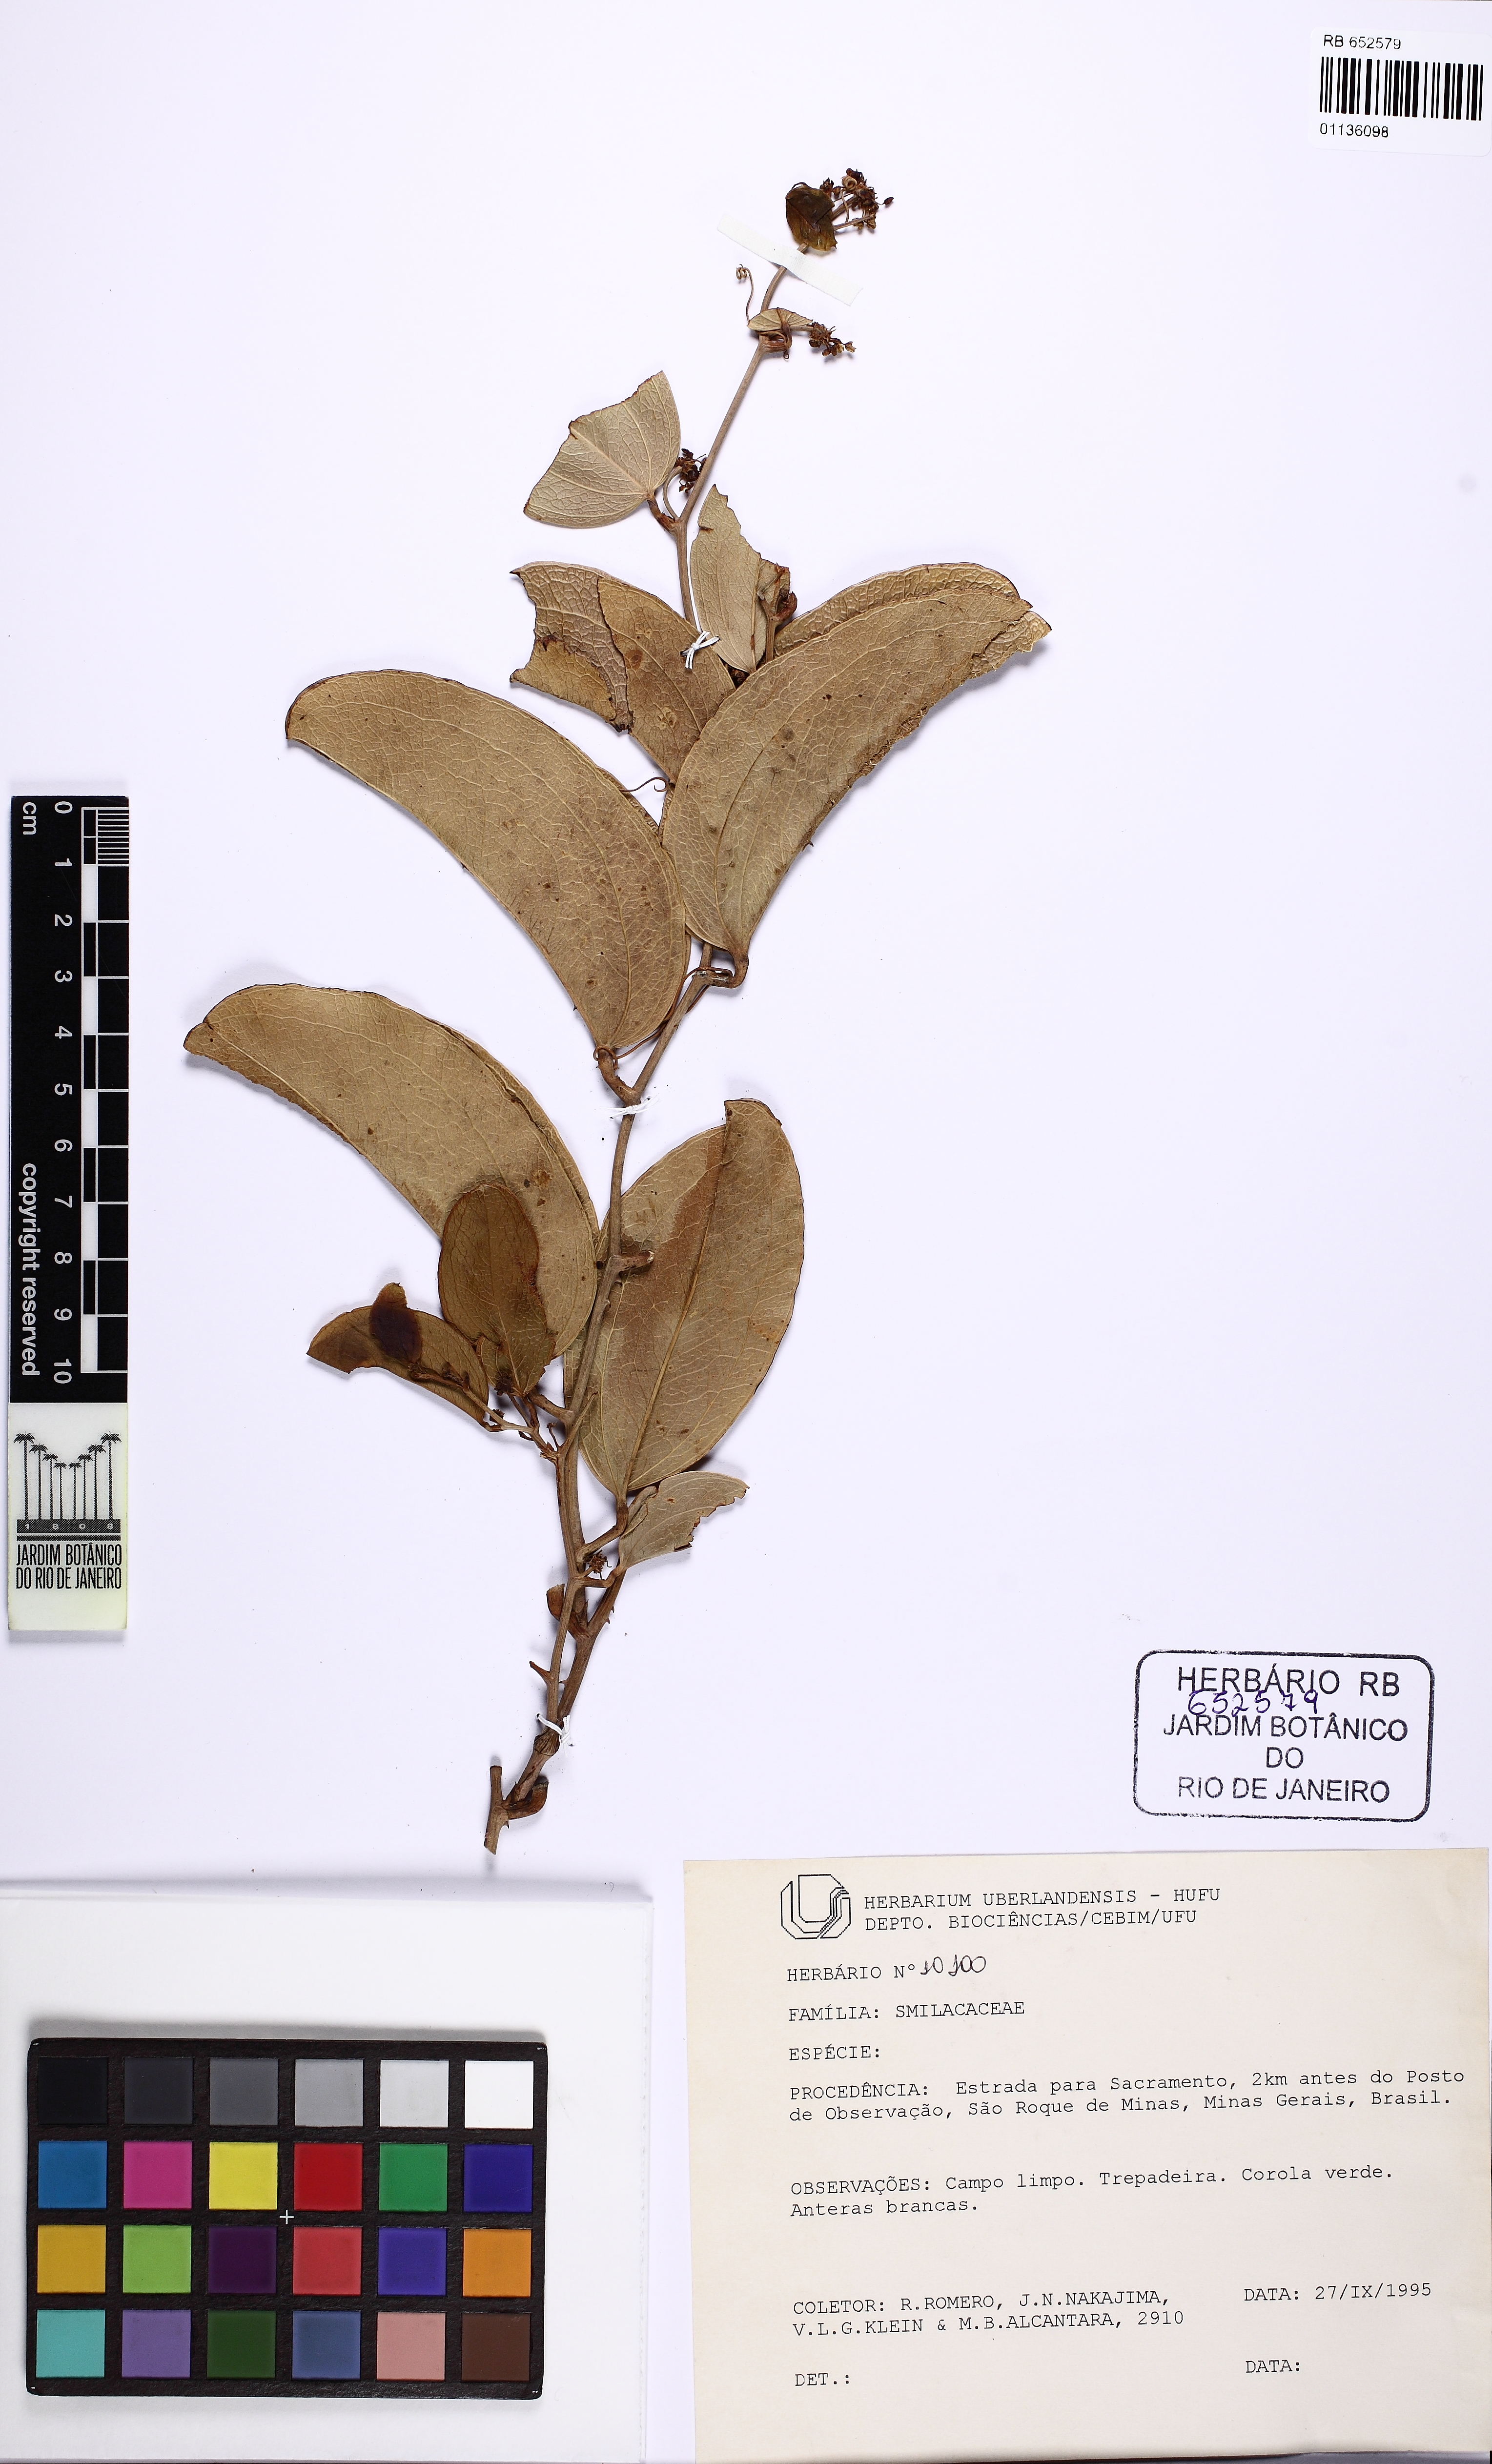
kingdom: Plantae
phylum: Tracheophyta
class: Liliopsida
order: Liliales
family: Smilacaceae
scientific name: Smilacaceae
